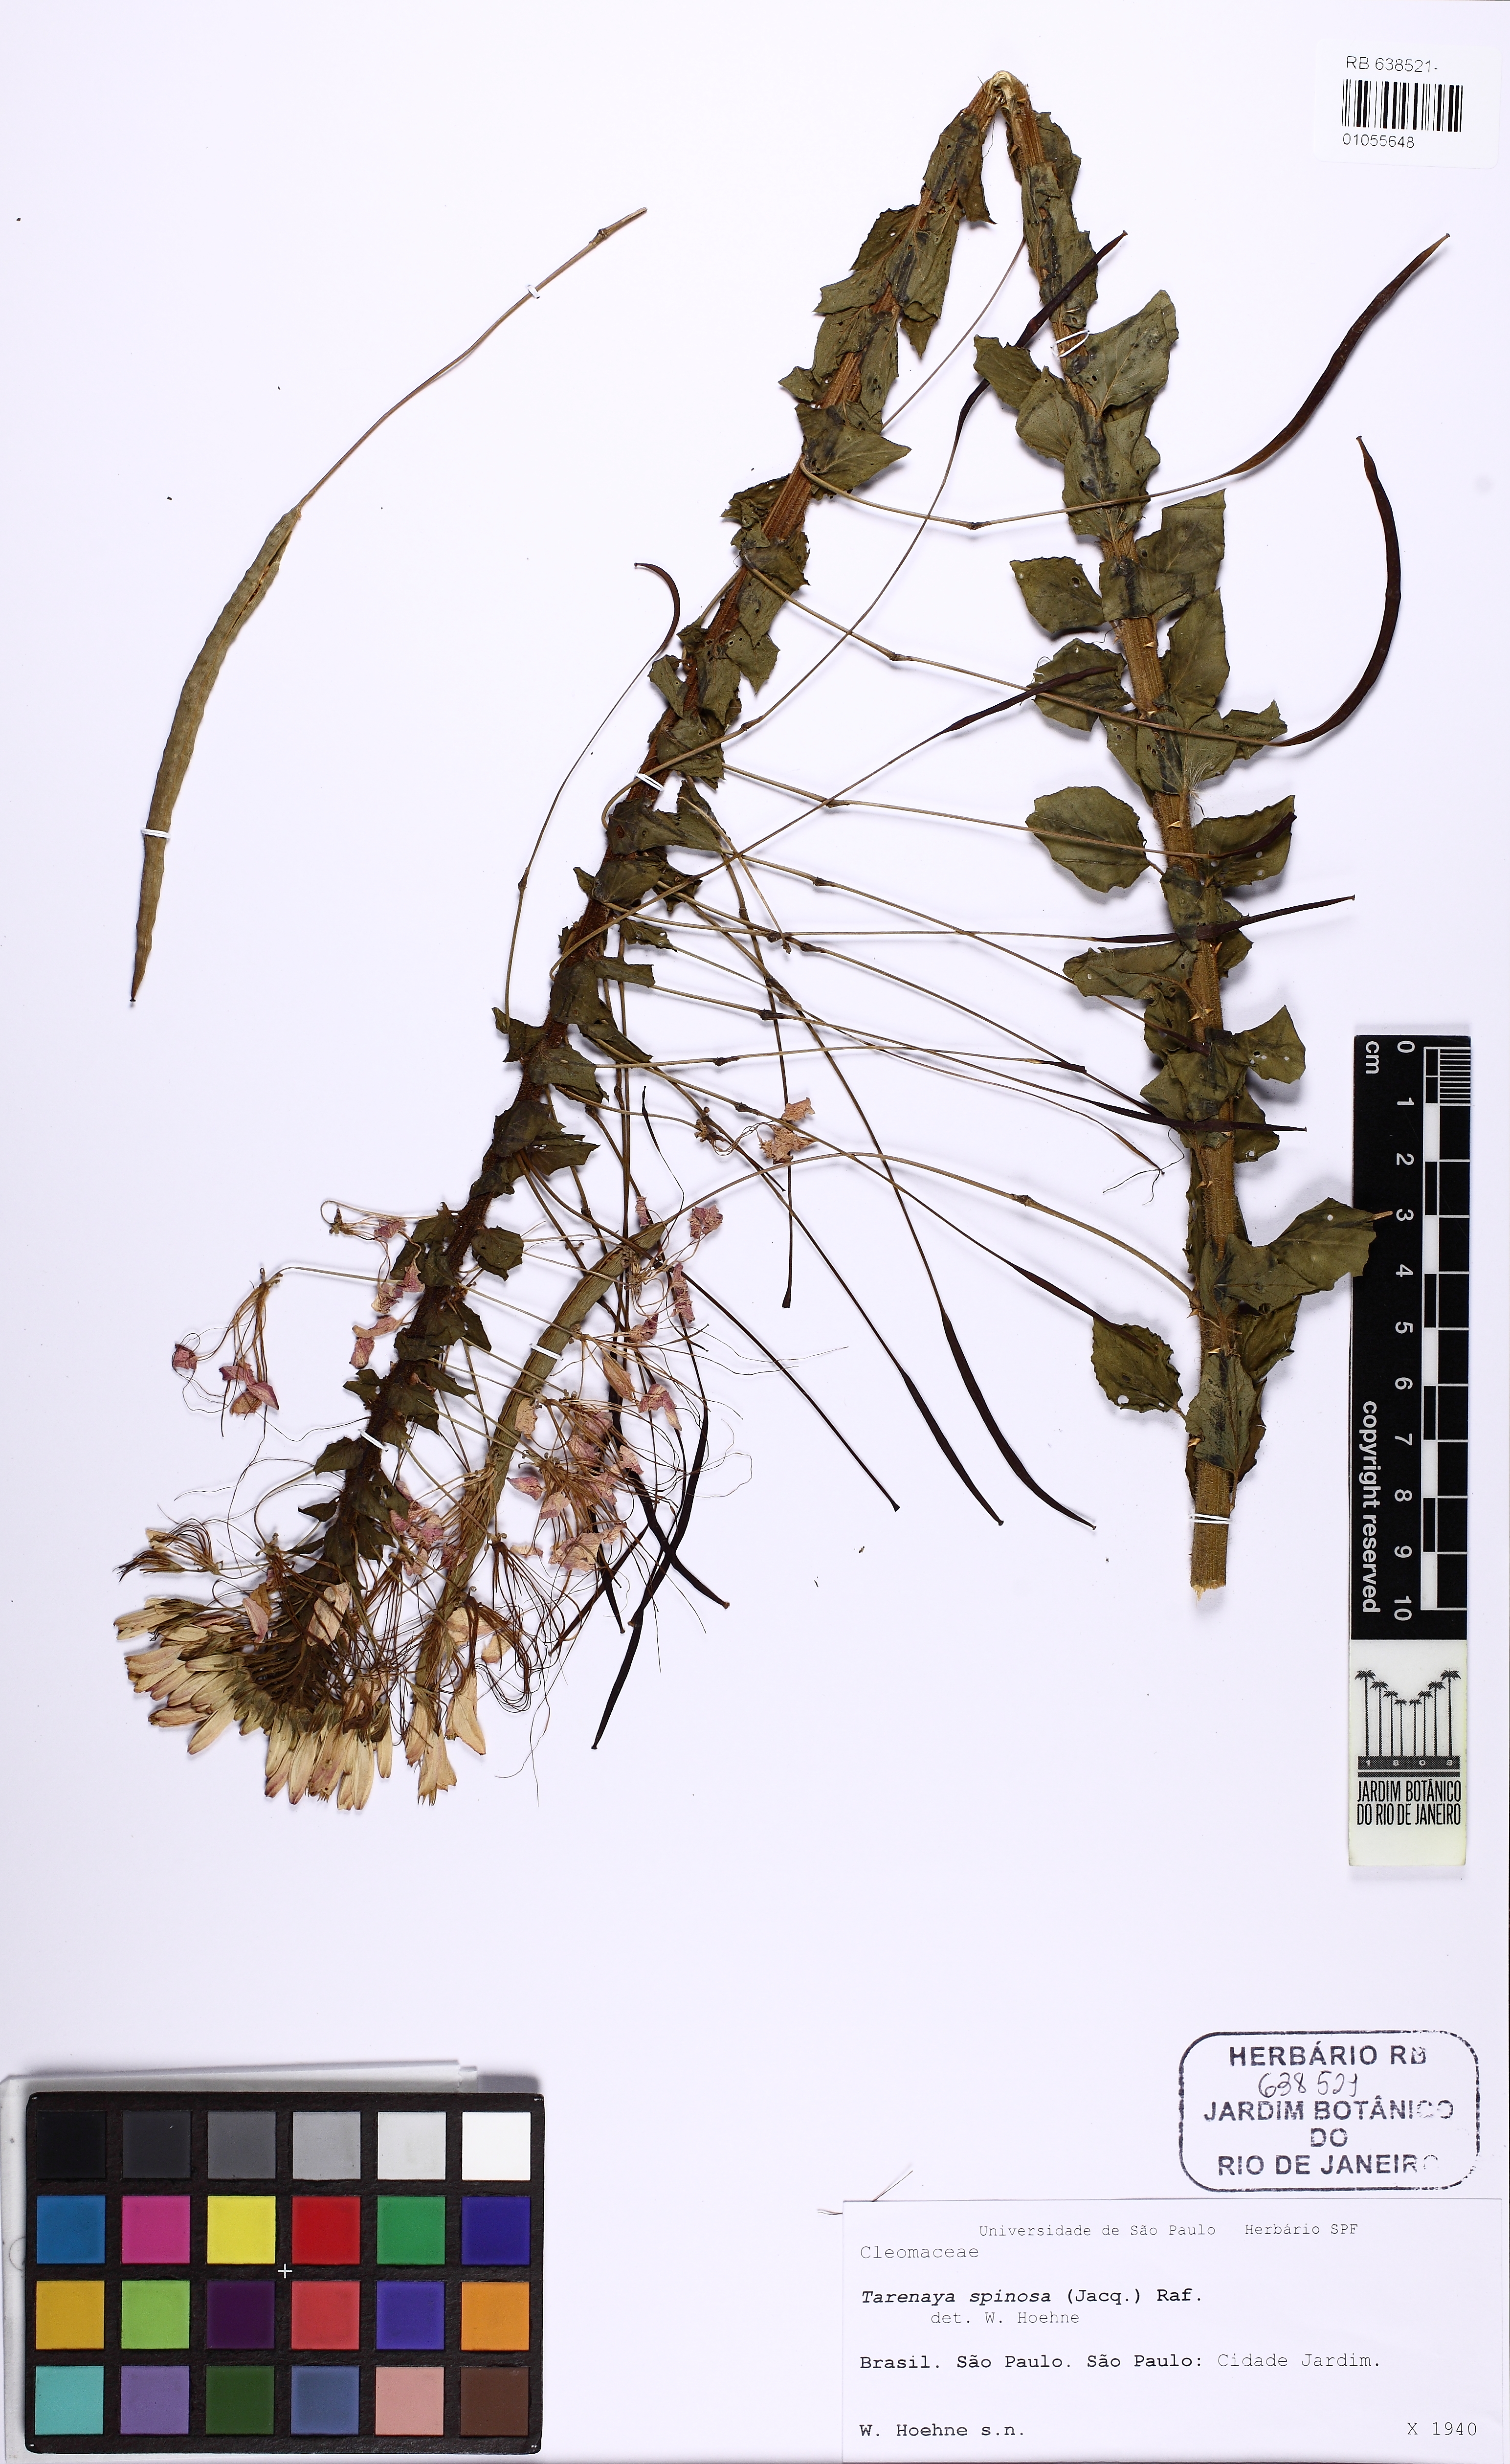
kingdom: Plantae
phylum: Tracheophyta
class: Magnoliopsida
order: Brassicales
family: Cleomaceae
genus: Tarenaya
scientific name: Tarenaya houtteana
